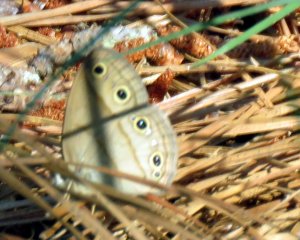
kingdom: Animalia
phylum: Arthropoda
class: Insecta
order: Lepidoptera
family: Nymphalidae
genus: Euptychia
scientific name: Euptychia cymela
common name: Little Wood Satyr
